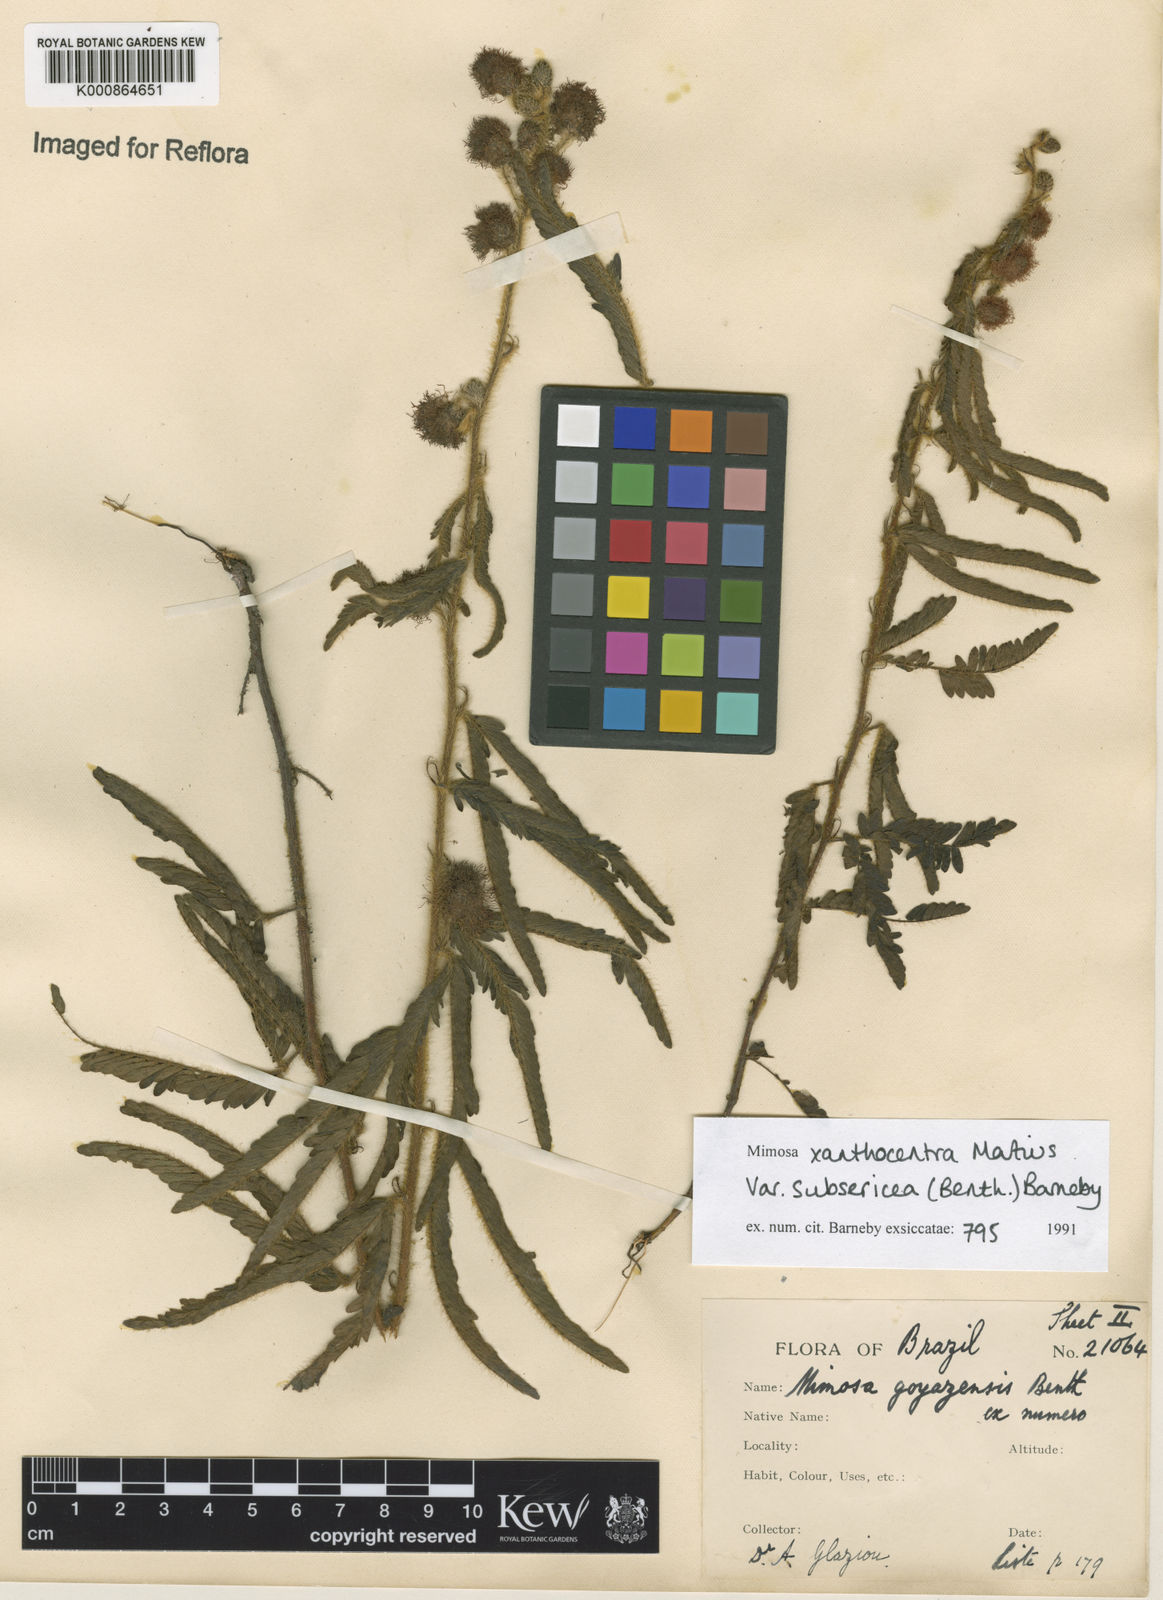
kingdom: Plantae
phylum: Tracheophyta
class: Magnoliopsida
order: Fabales
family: Fabaceae
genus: Mimosa
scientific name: Mimosa xanthocentra
